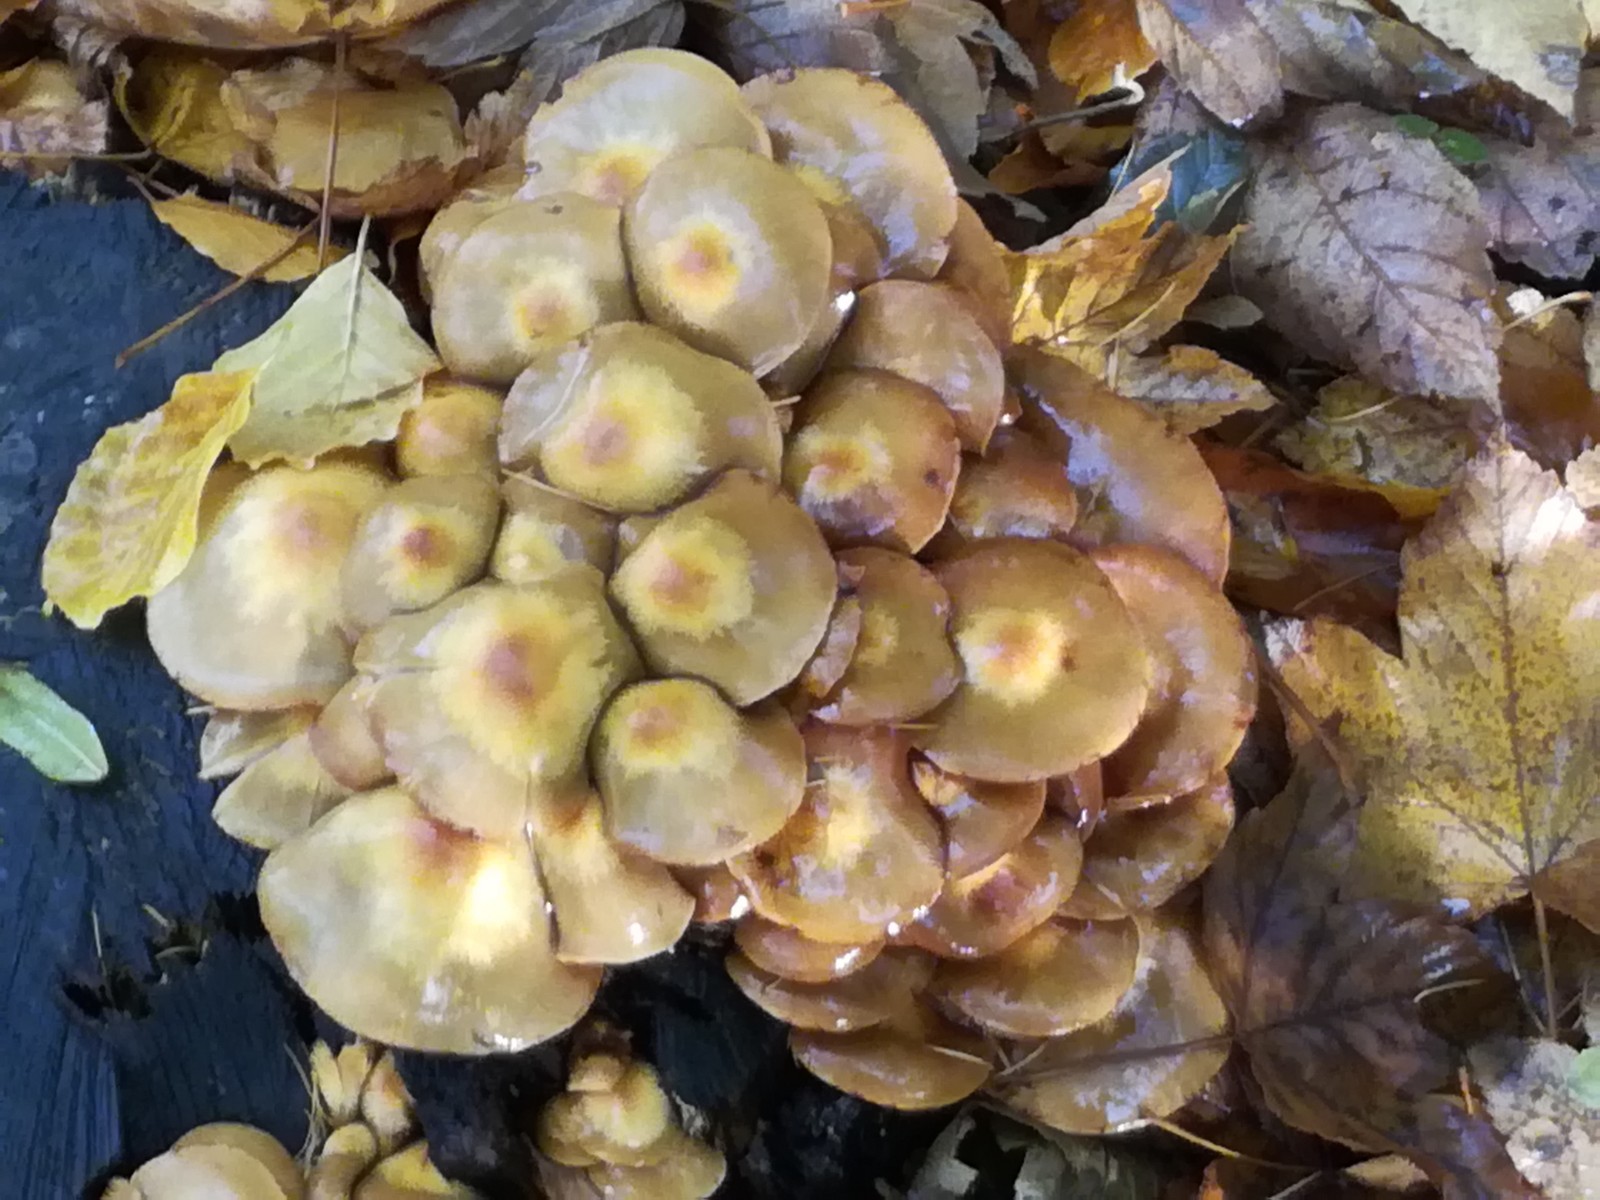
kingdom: Fungi
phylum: Basidiomycota
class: Agaricomycetes
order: Agaricales
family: Strophariaceae
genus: Kuehneromyces
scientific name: Kuehneromyces mutabilis
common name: foranderlig skælhat
